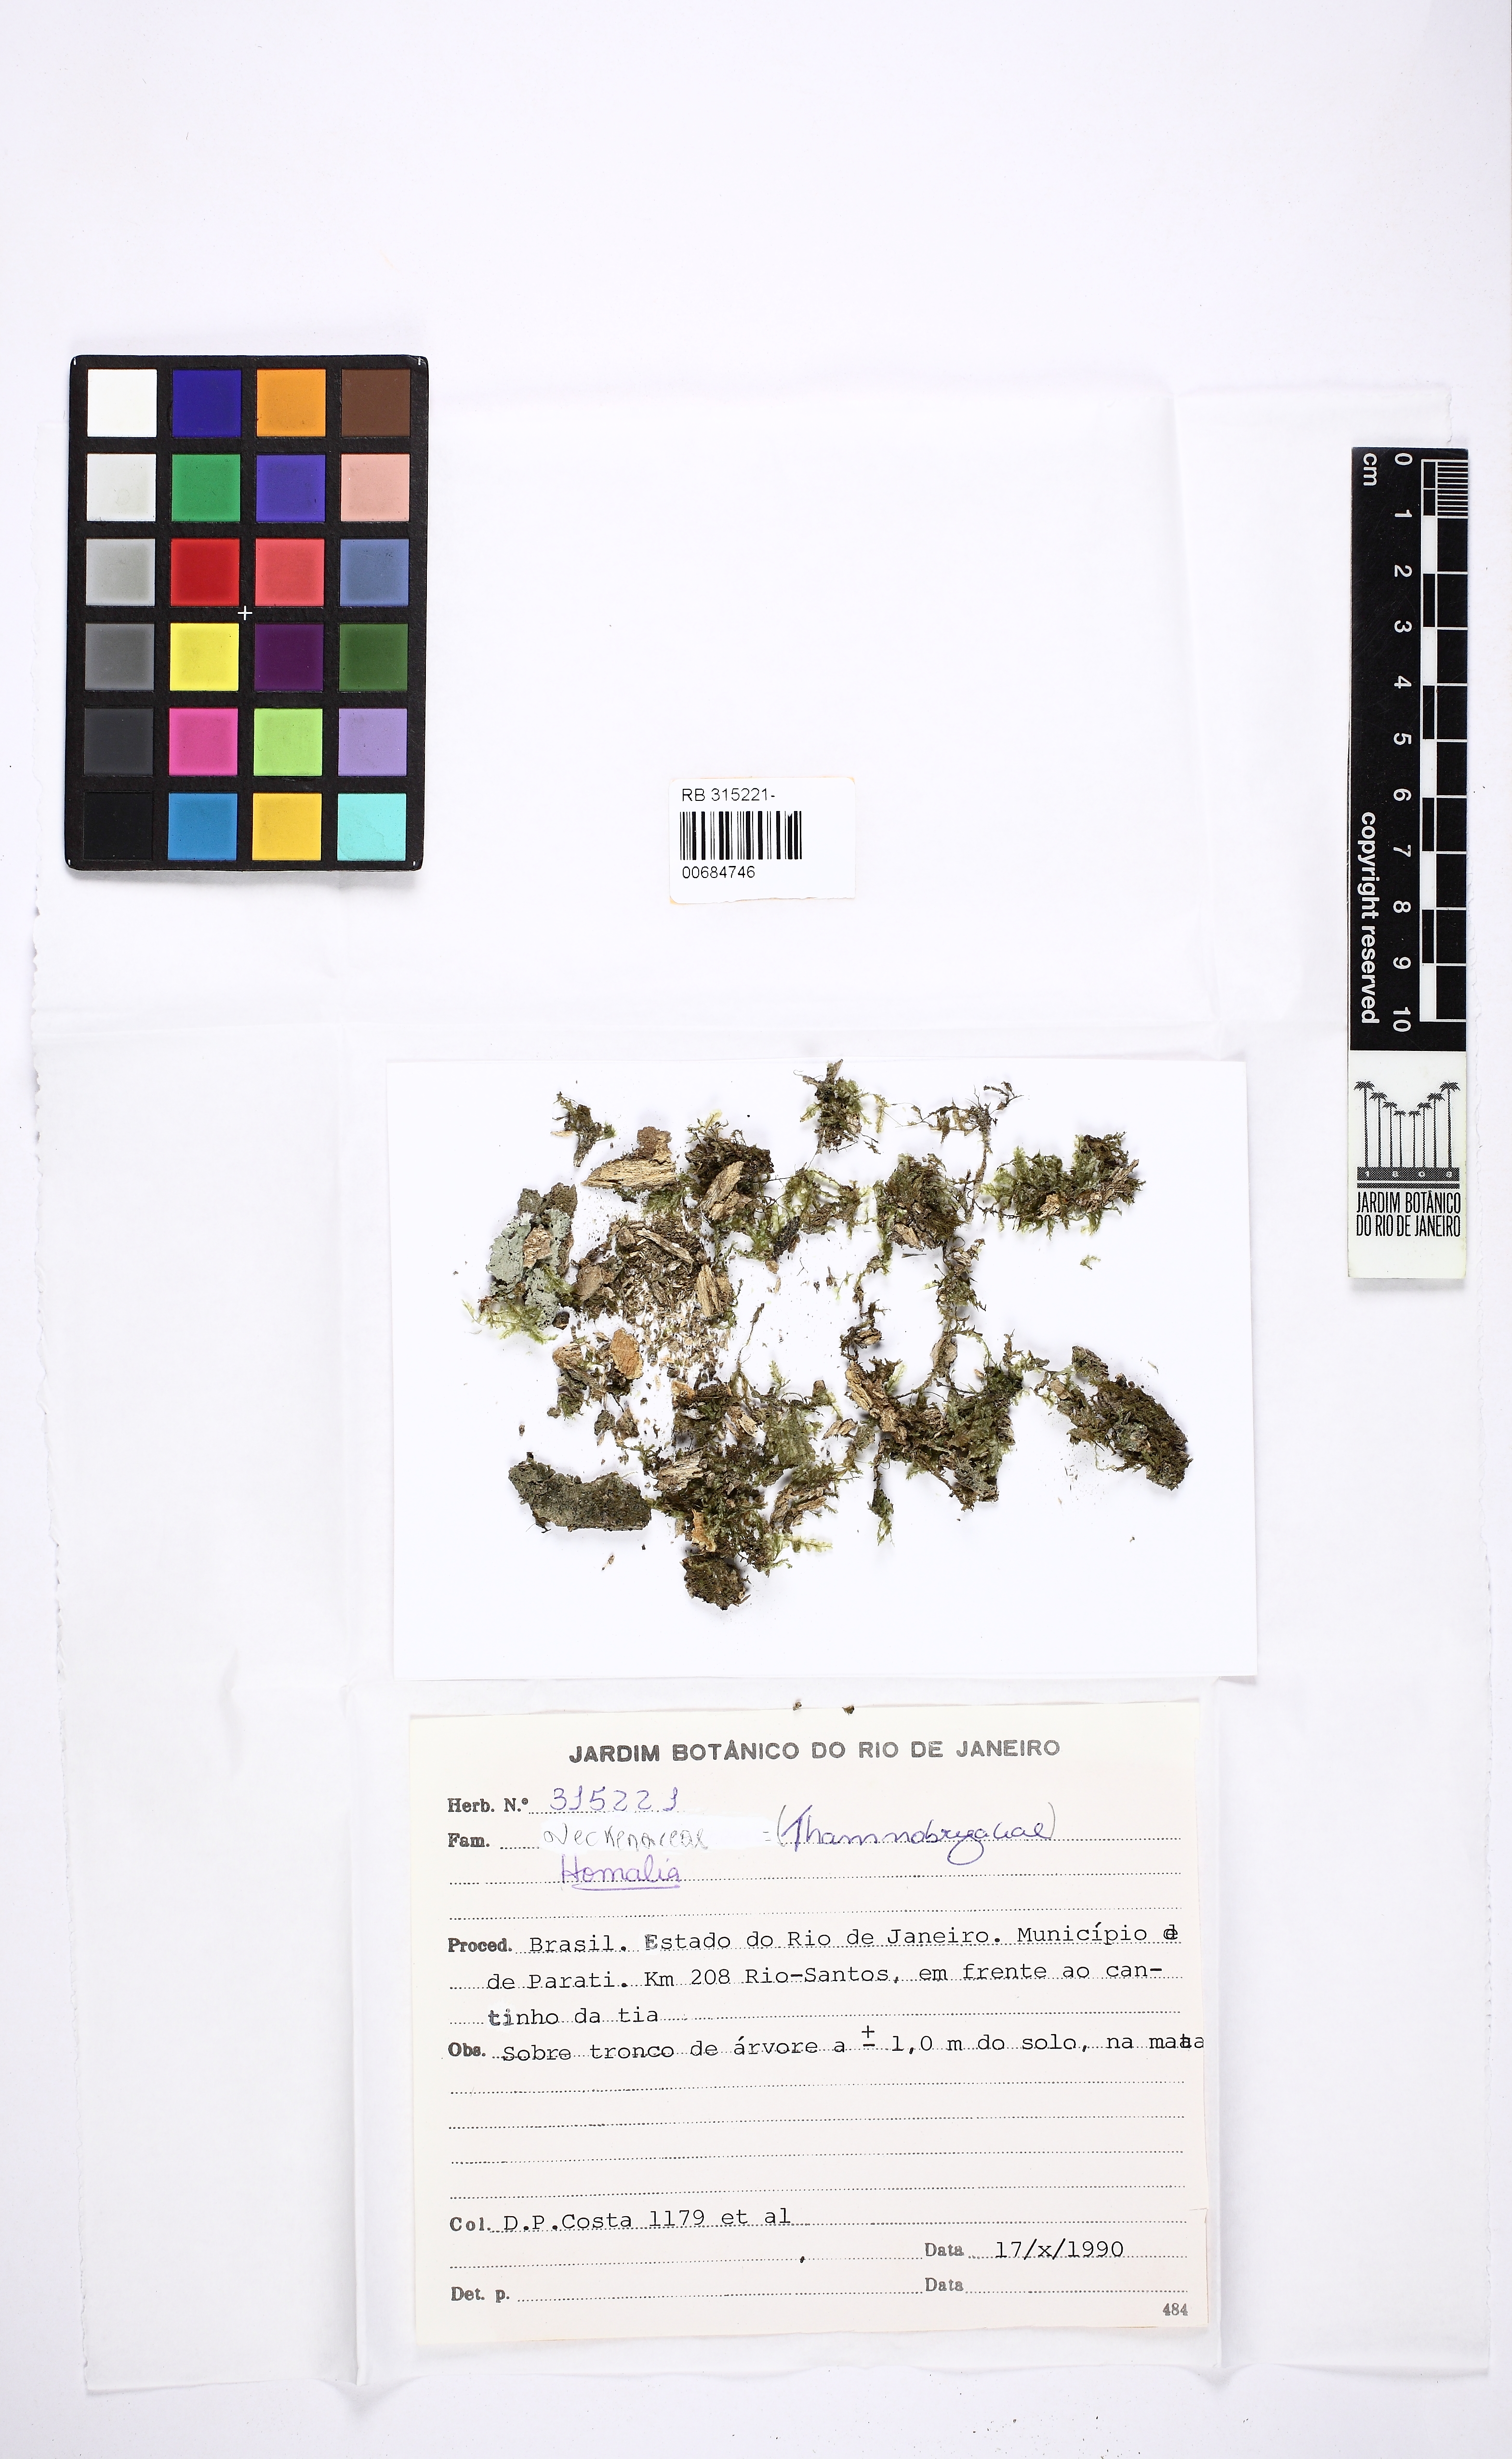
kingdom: Plantae
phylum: Bryophyta
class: Bryopsida
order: Hypnales
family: Neckeraceae
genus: Thamnomalia
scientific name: Thamnomalia glabella
